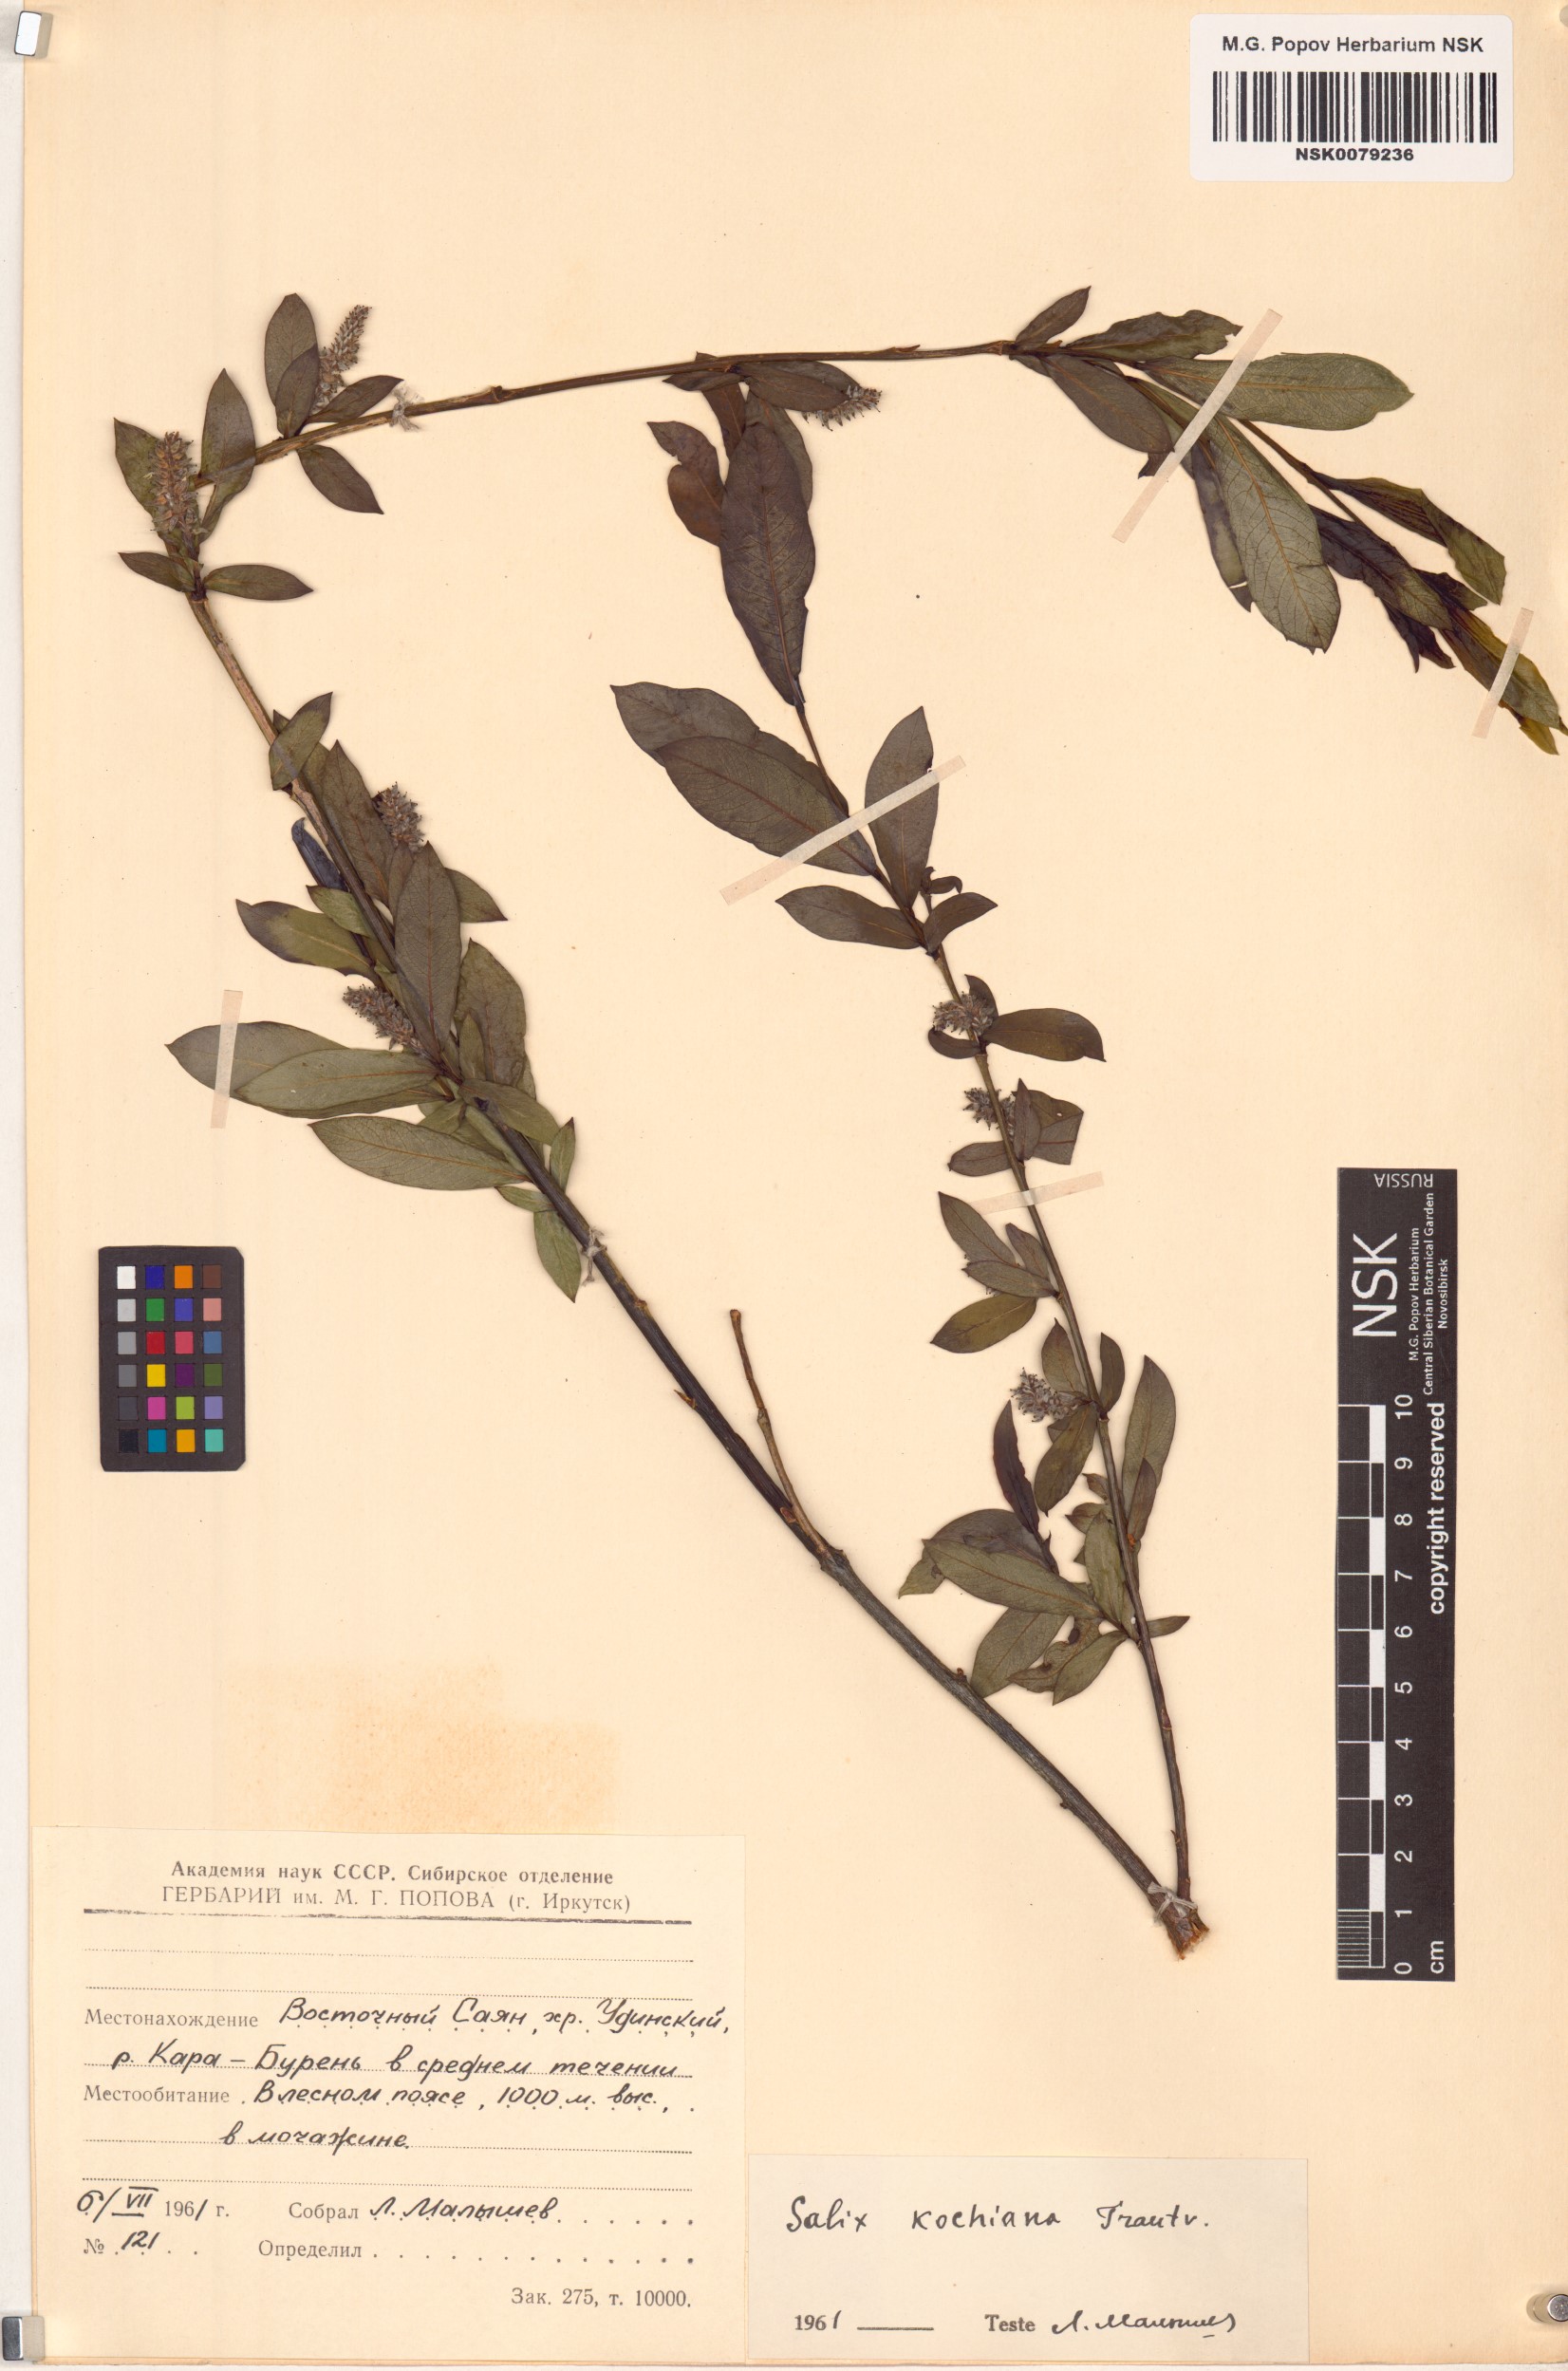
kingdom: Plantae
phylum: Tracheophyta
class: Magnoliopsida
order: Malpighiales
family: Salicaceae
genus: Salix
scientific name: Salix kochiana
